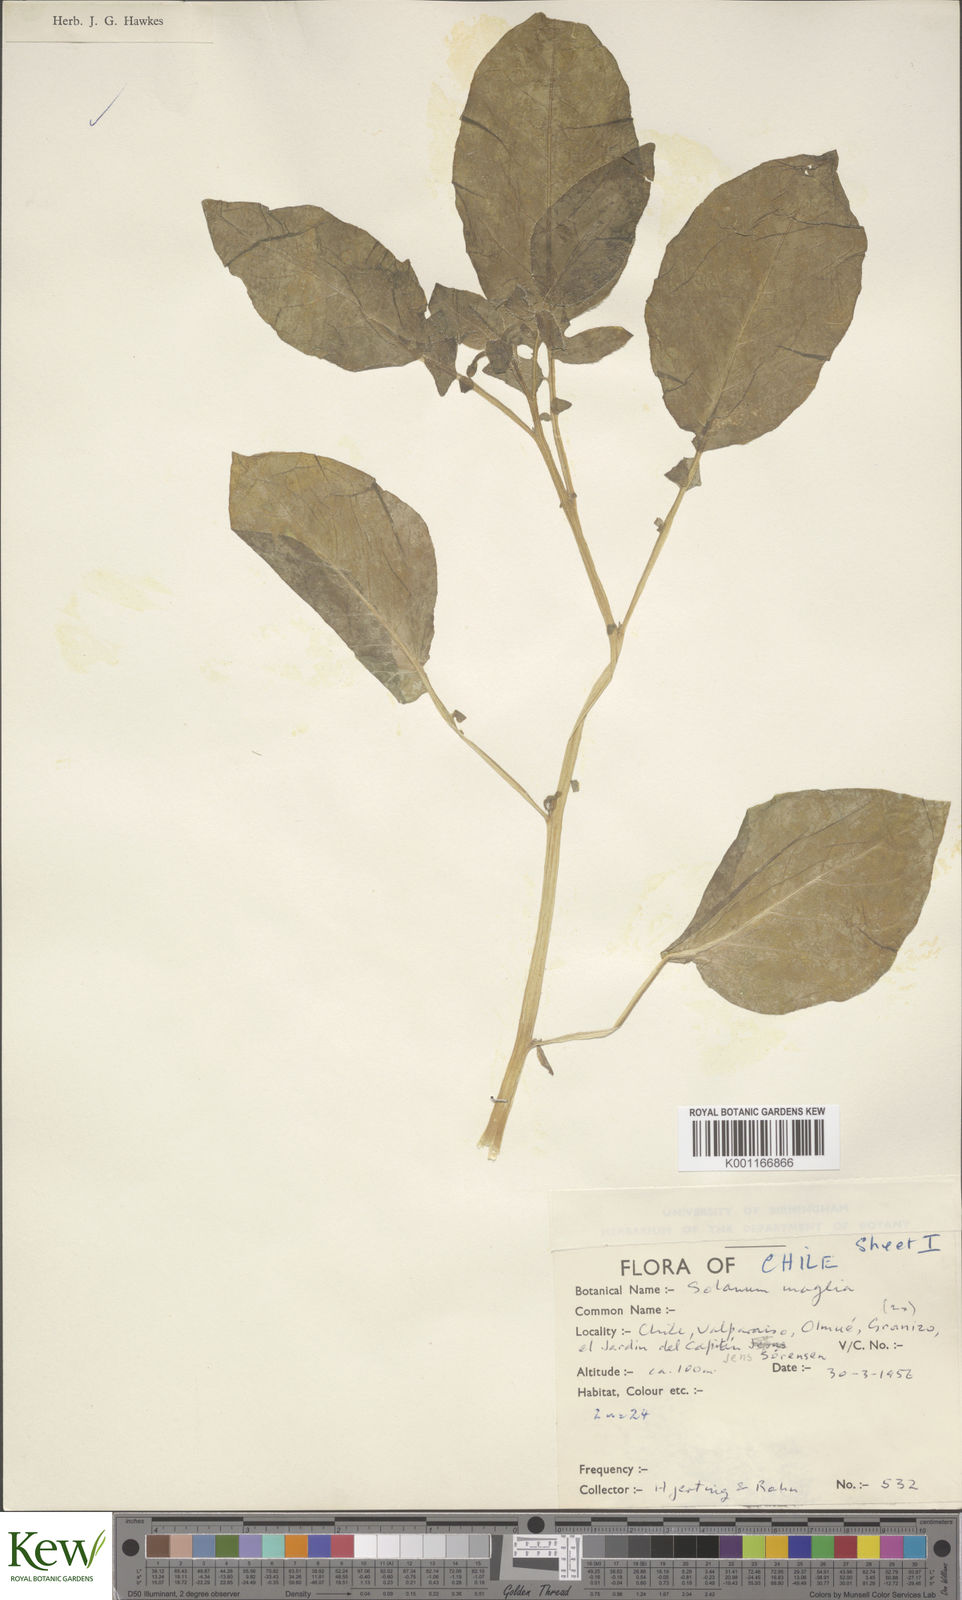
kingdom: Plantae
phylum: Tracheophyta
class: Magnoliopsida
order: Solanales
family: Solanaceae
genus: Solanum
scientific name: Solanum maglia
